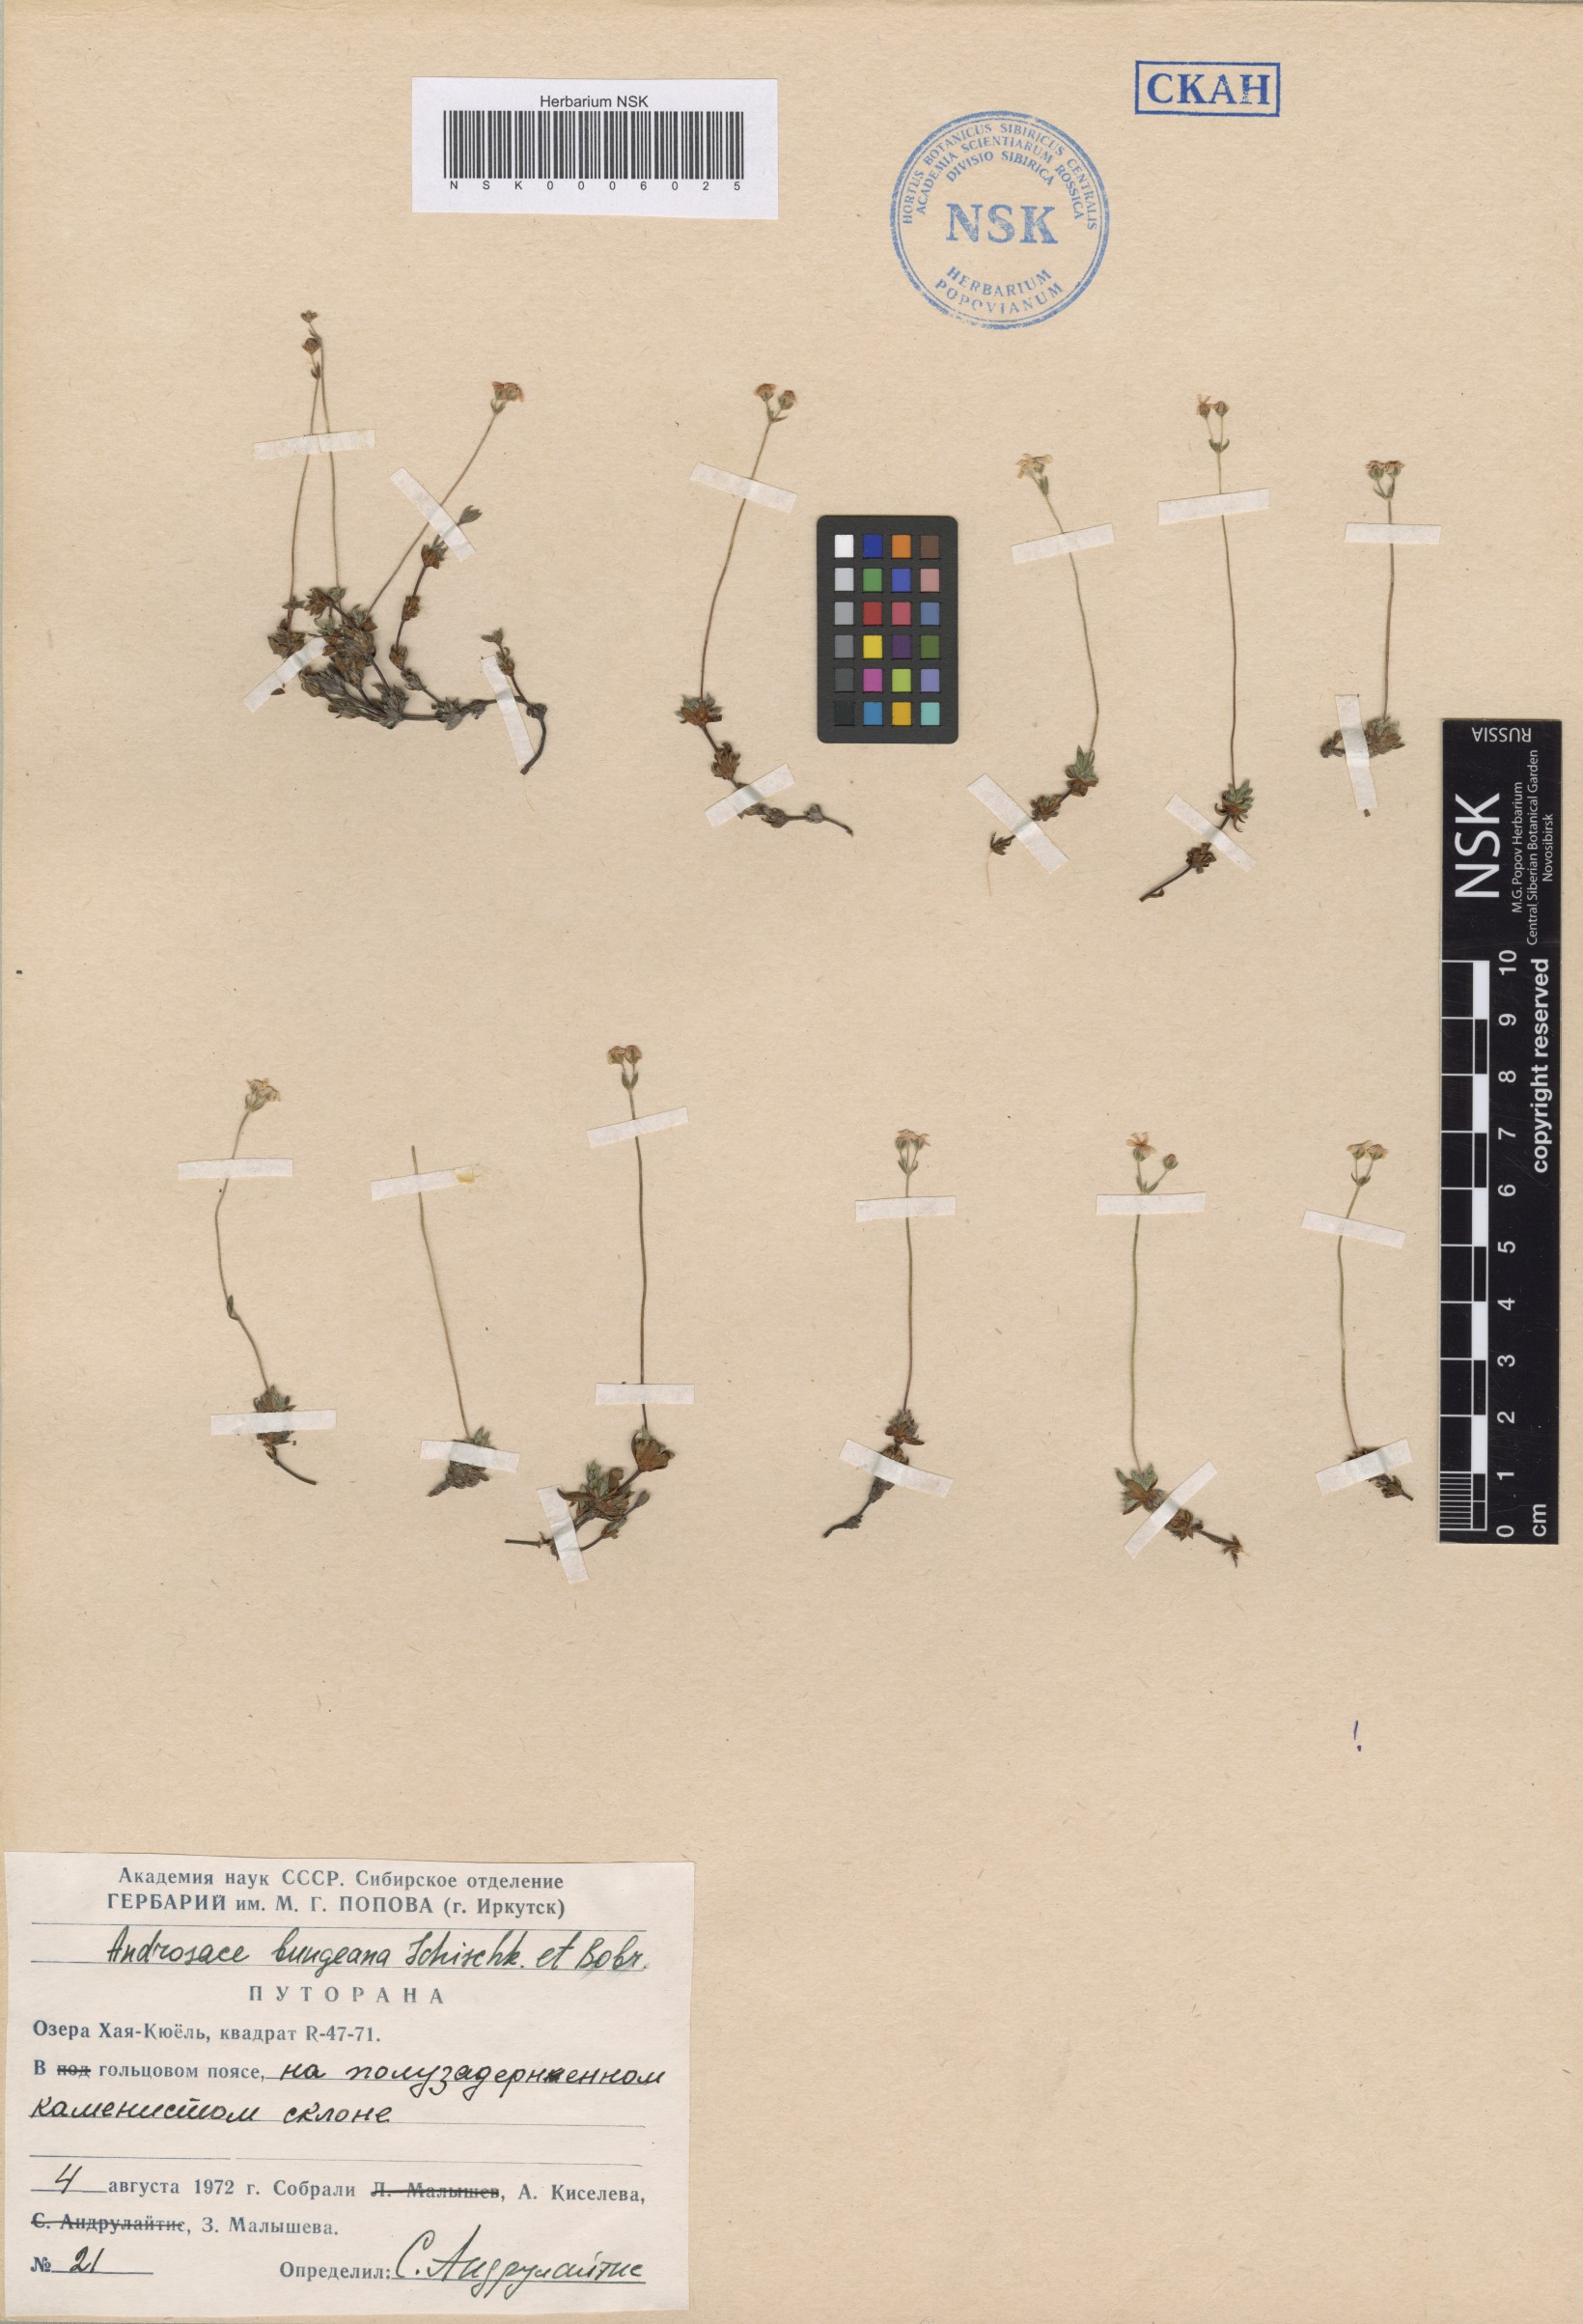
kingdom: Plantae
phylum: Tracheophyta
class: Magnoliopsida
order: Ericales
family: Primulaceae
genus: Androsace
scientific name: Androsace bungeana
